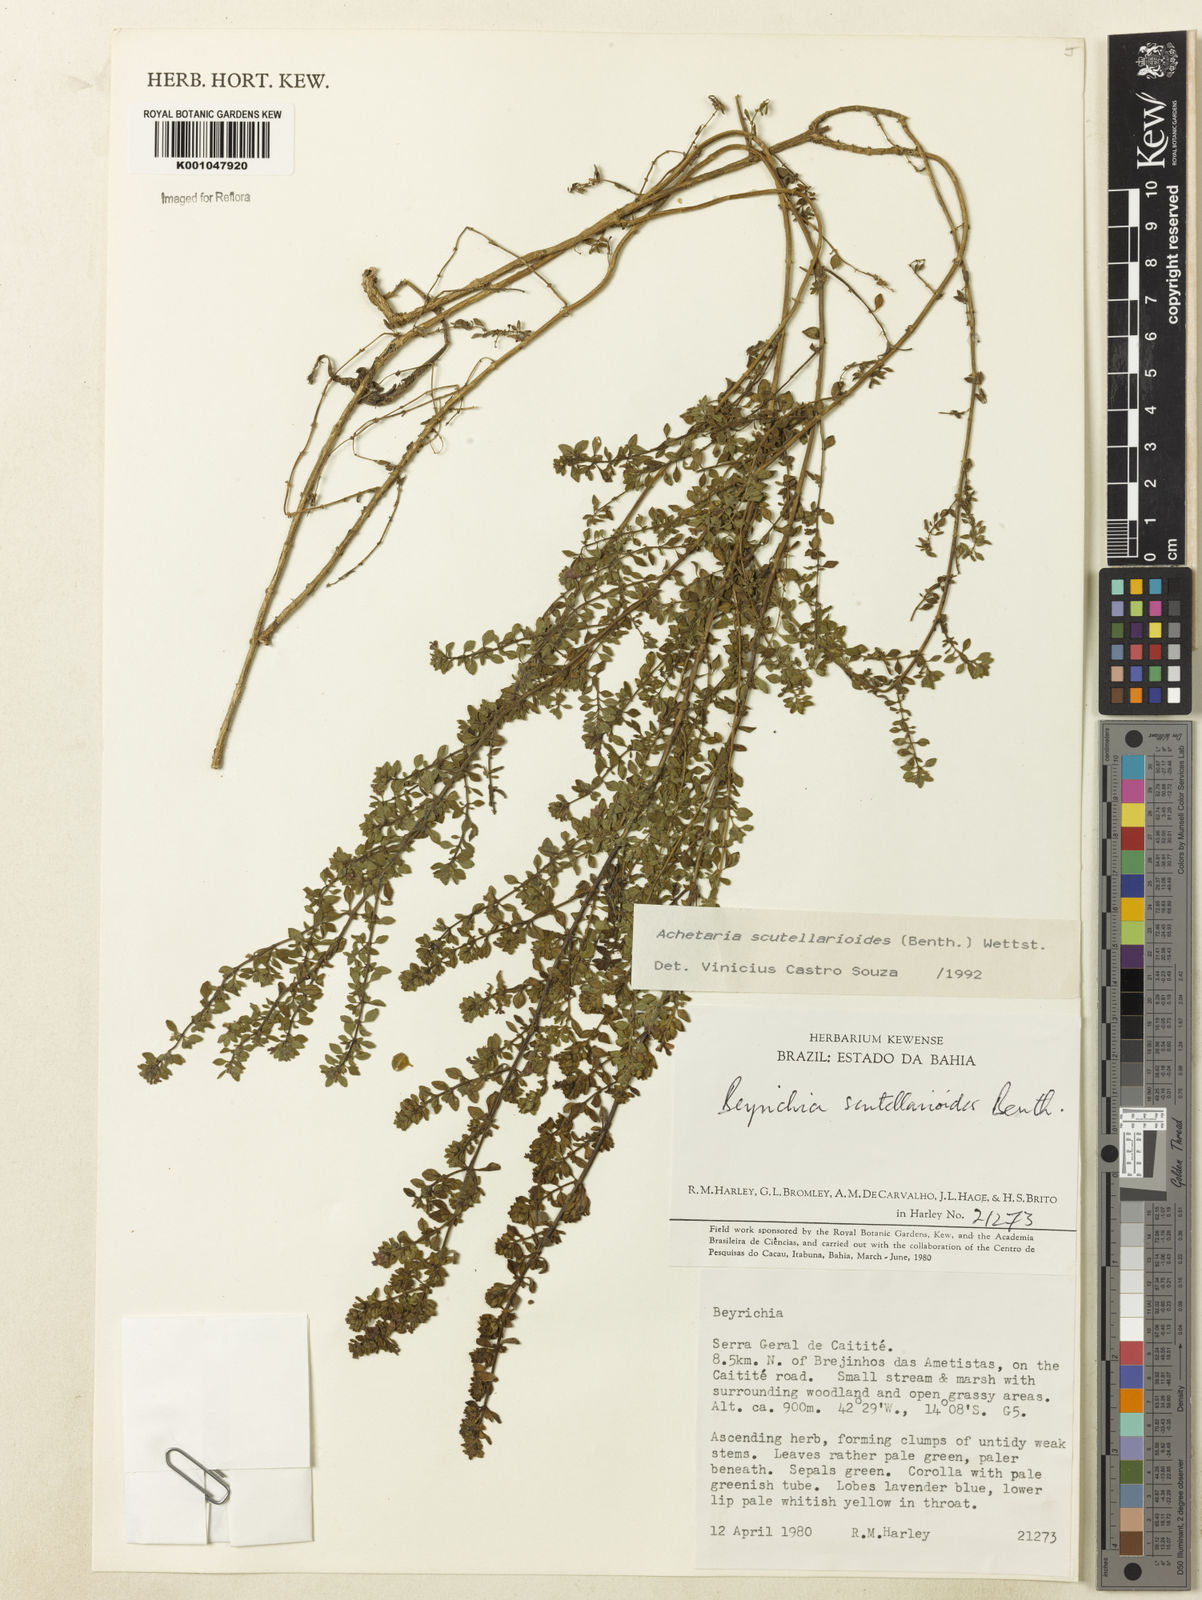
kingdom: Plantae
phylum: Tracheophyta
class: Magnoliopsida
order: Lamiales
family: Plantaginaceae
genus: Matourea
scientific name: Matourea scutellarioides
